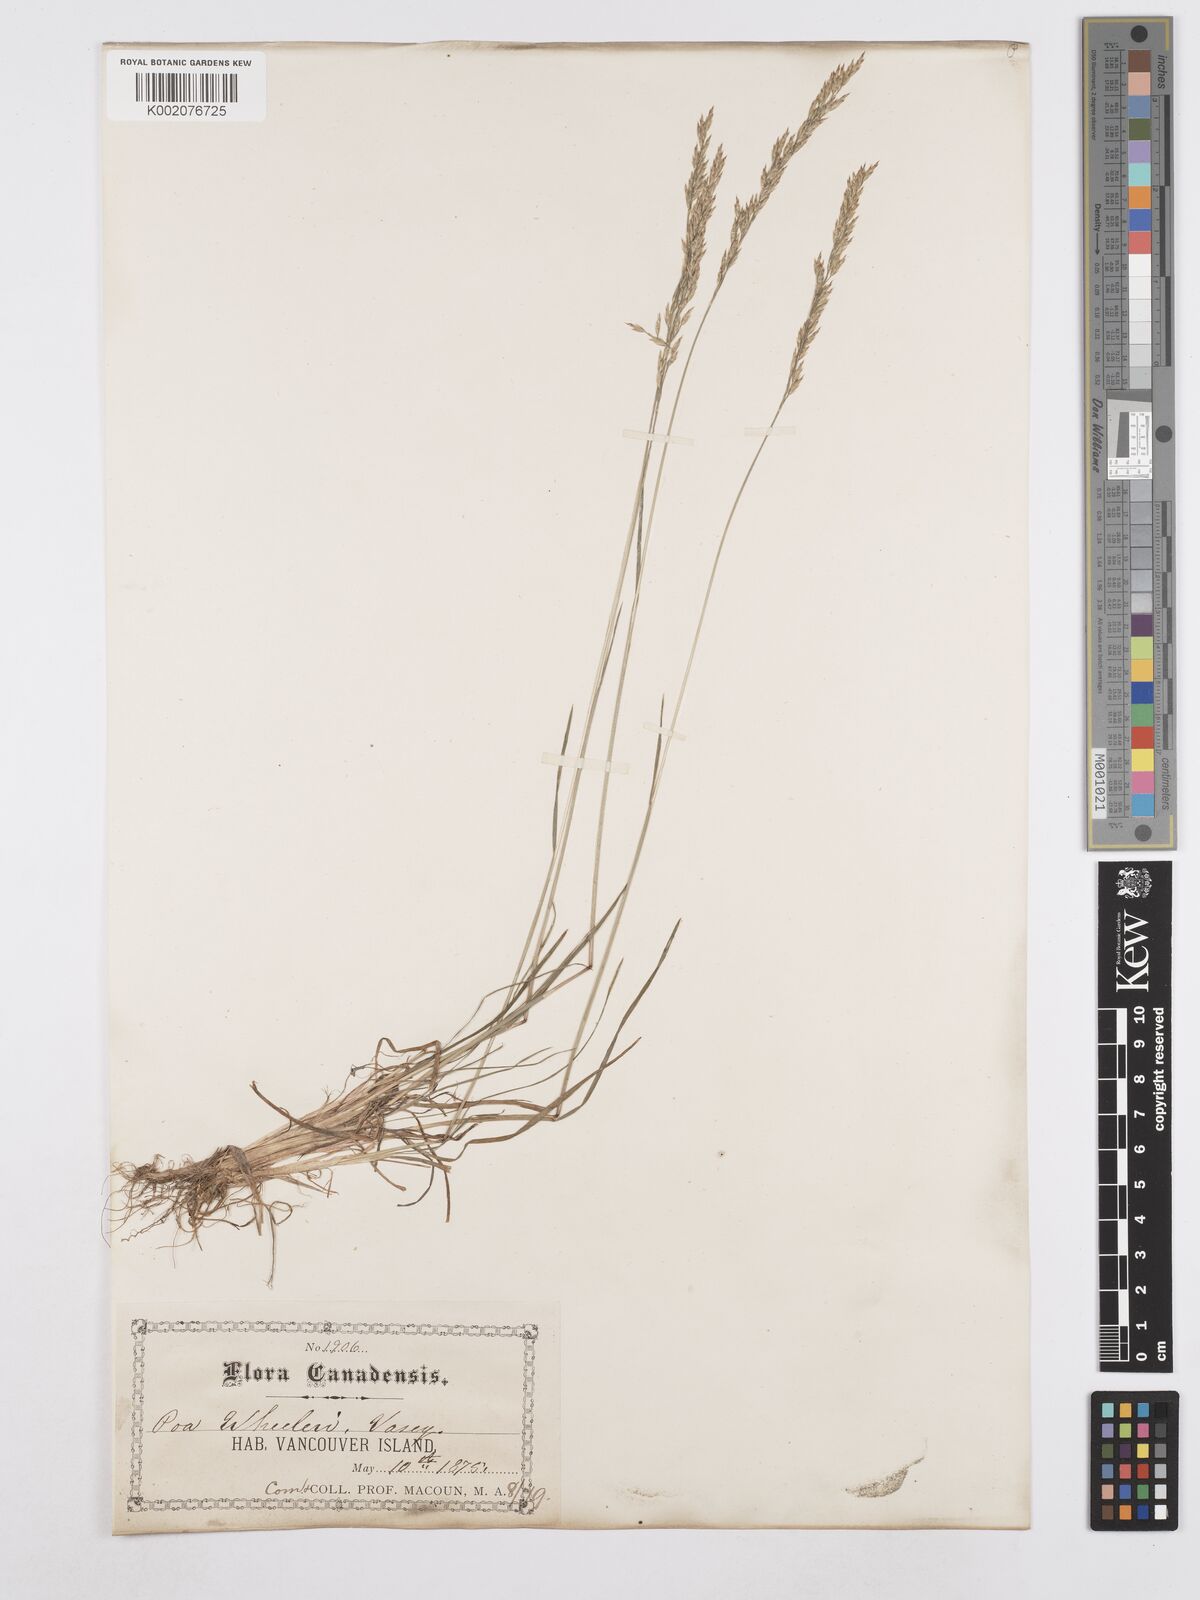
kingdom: Plantae
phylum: Tracheophyta
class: Liliopsida
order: Poales
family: Poaceae
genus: Poa
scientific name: Poa wheeleri
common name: Wheeler's bluegrass
